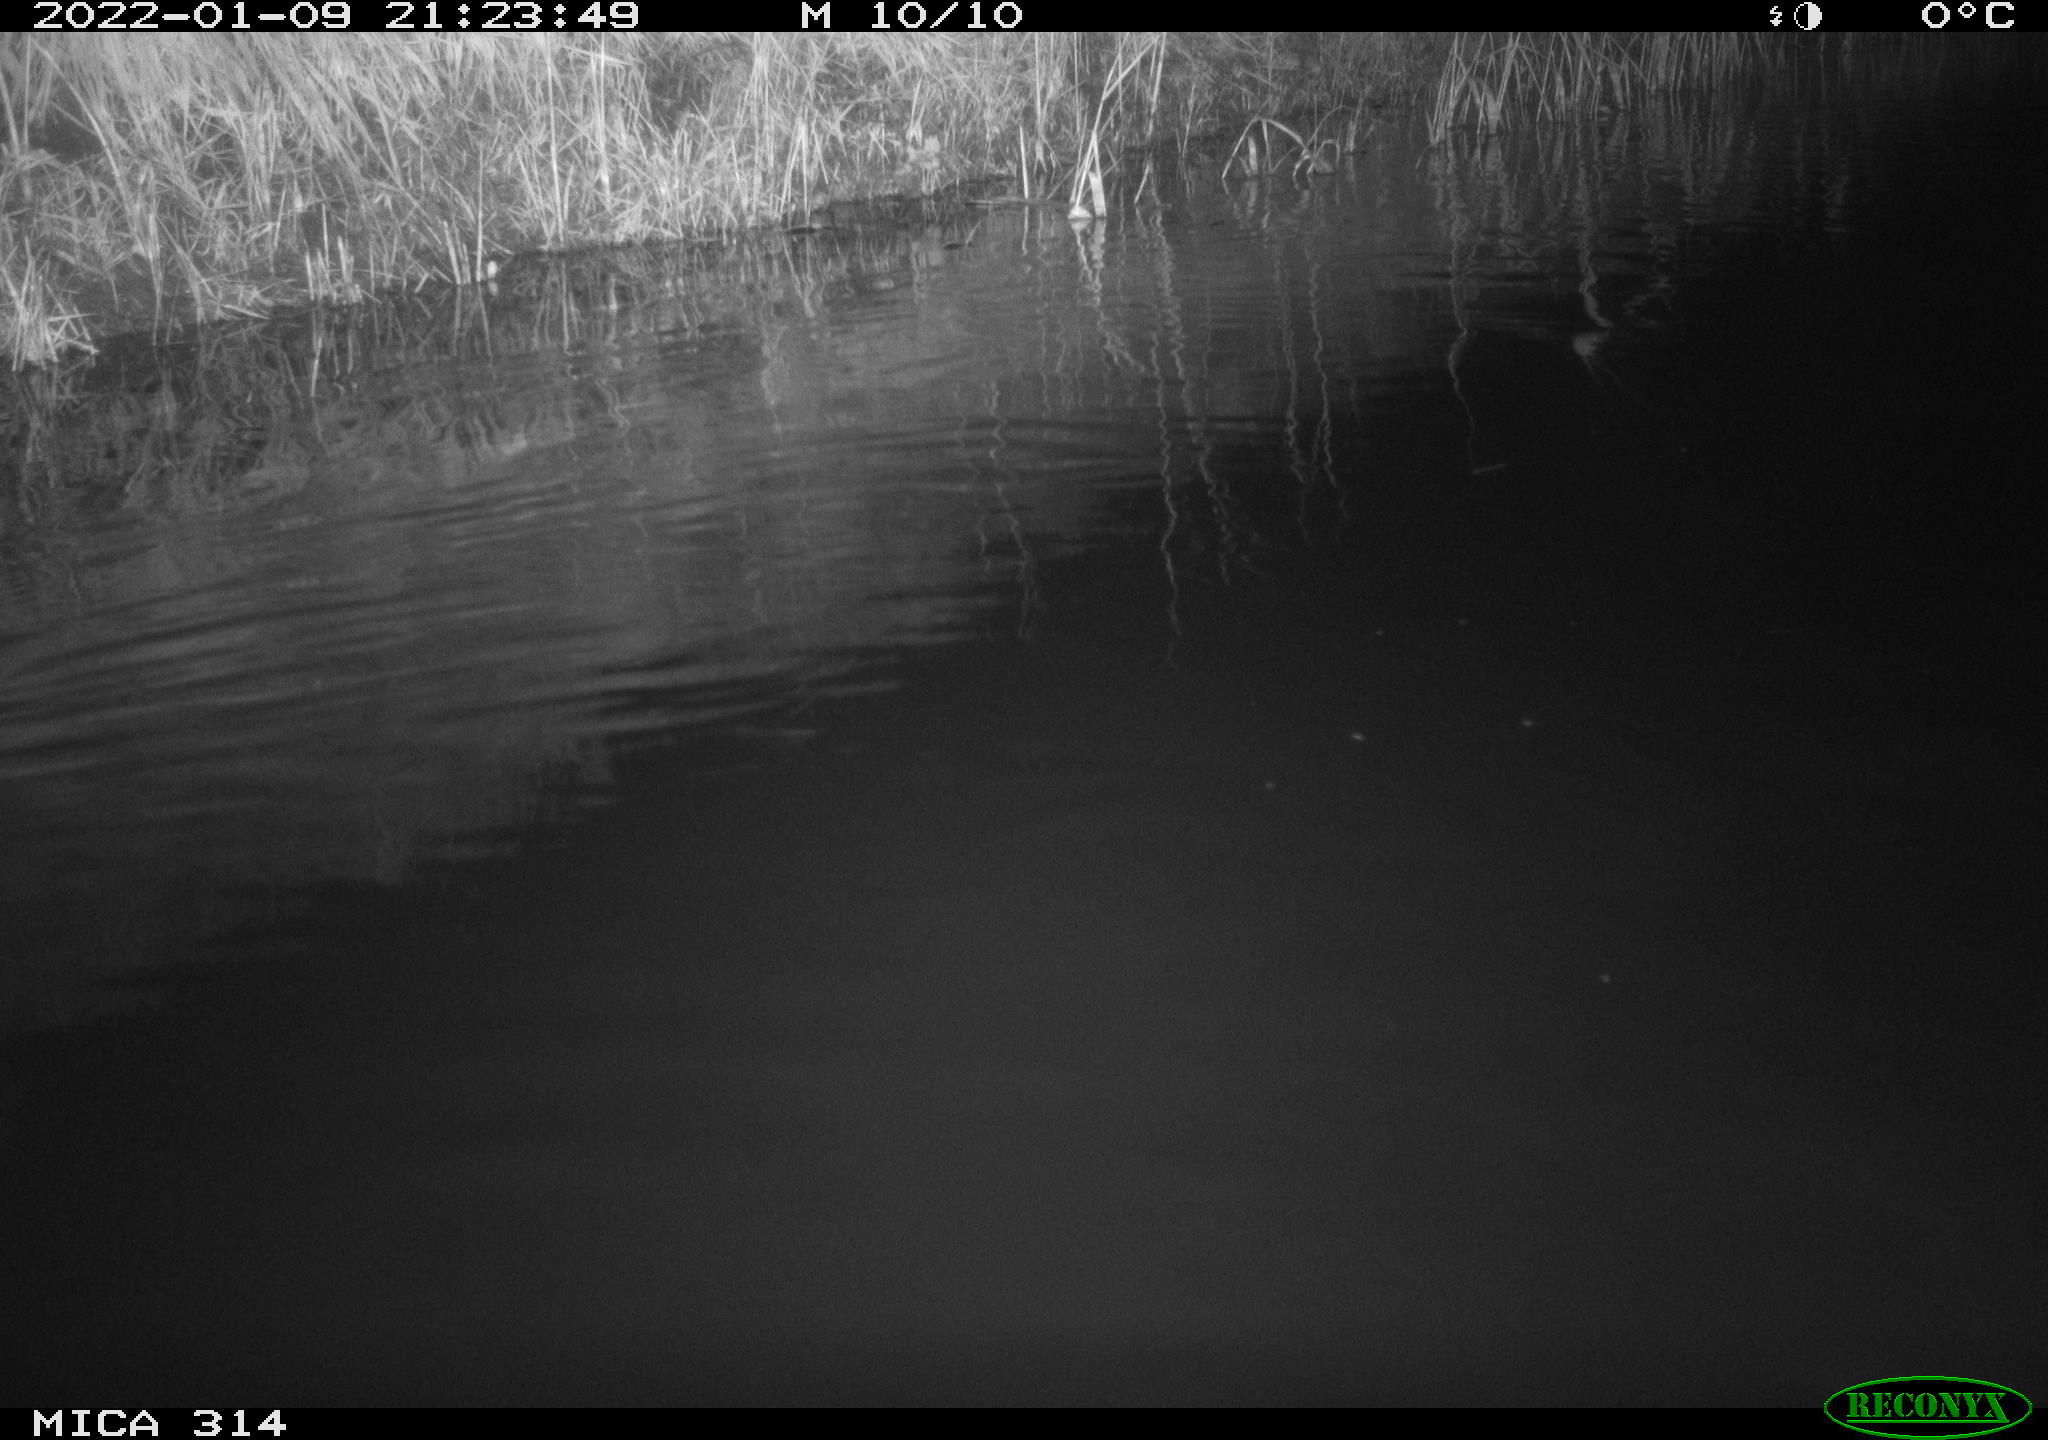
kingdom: Animalia
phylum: Chordata
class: Mammalia
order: Rodentia
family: Cricetidae
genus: Ondatra
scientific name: Ondatra zibethicus
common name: Muskrat
